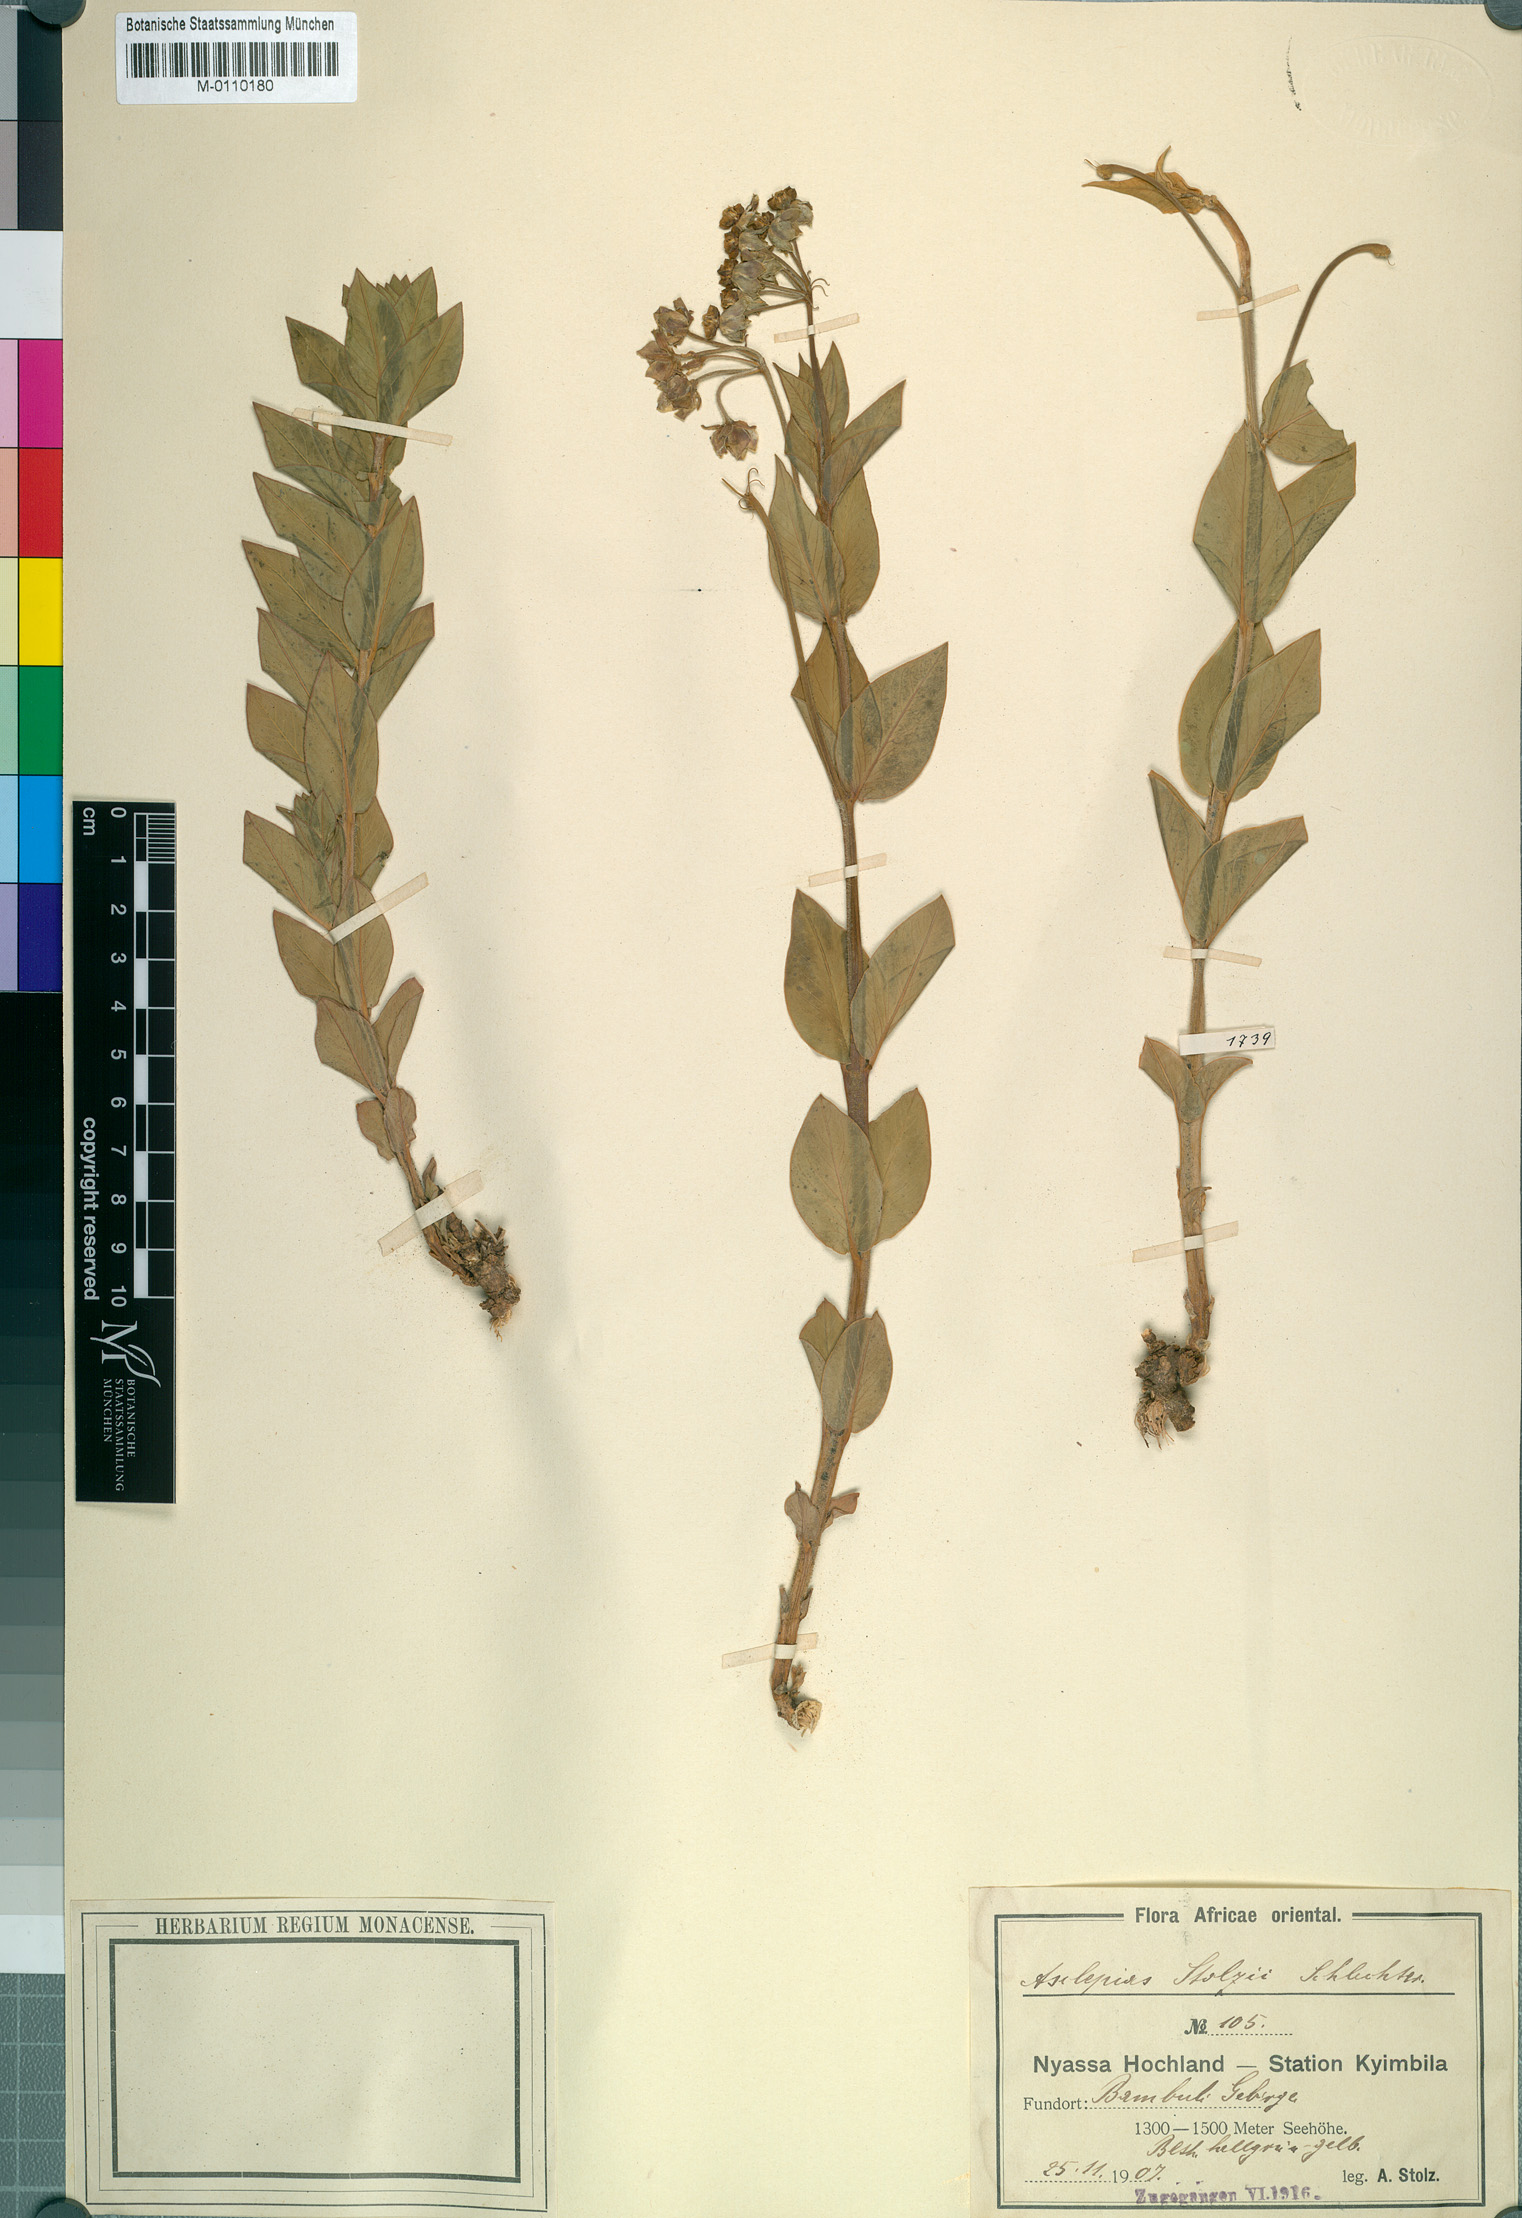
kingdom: Plantae
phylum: Tracheophyta
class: Magnoliopsida
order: Gentianales
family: Apocynaceae
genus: Gomphocarpus
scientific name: Gomphocarpus swynnertonii
